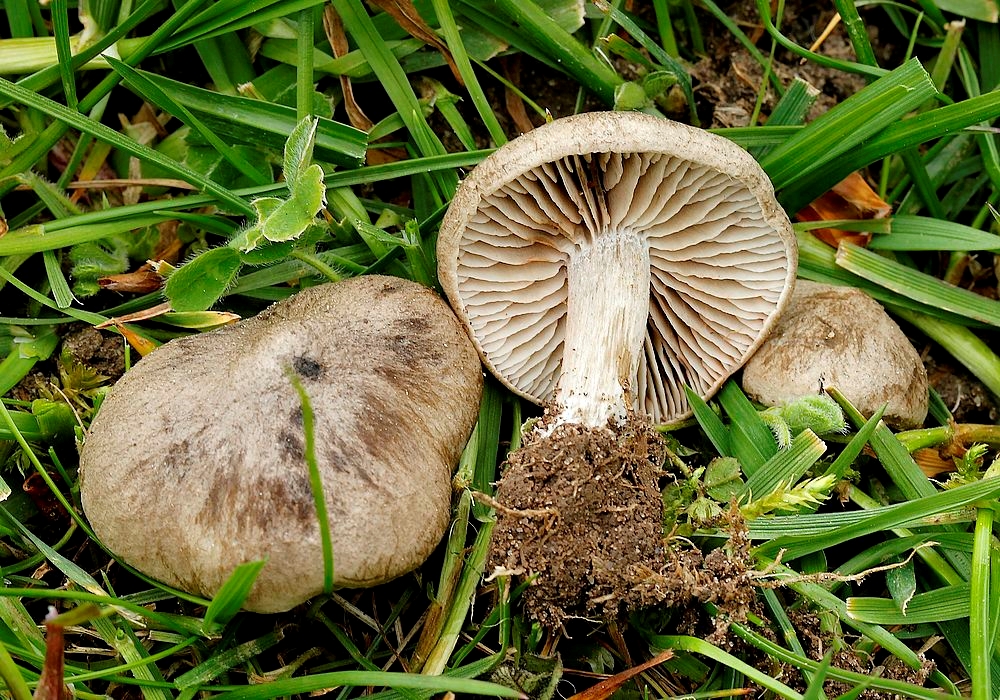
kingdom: Fungi
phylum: Basidiomycota
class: Agaricomycetes
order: Agaricales
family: Entolomataceae
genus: Entoloma
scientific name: Entoloma opacum
